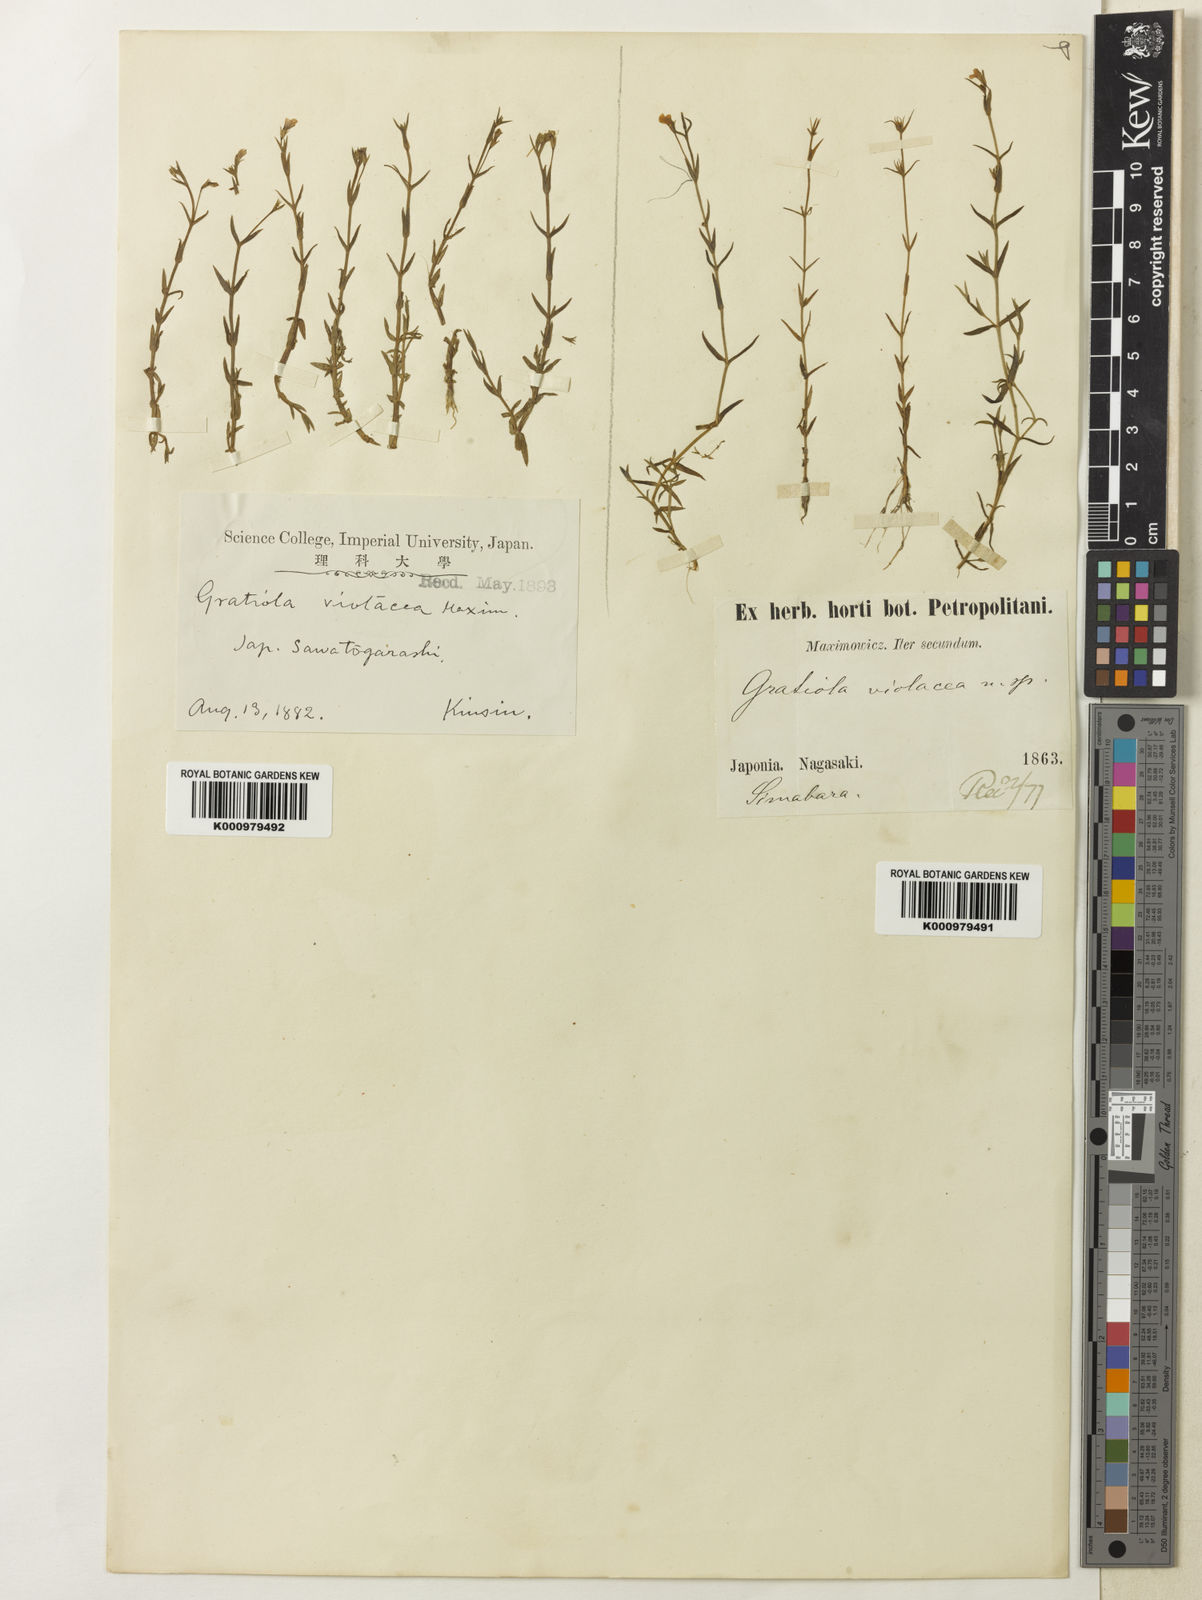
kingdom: Plantae
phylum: Tracheophyta
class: Magnoliopsida
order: Lamiales
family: Plantaginaceae
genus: Deinostema
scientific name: Deinostema violacea
